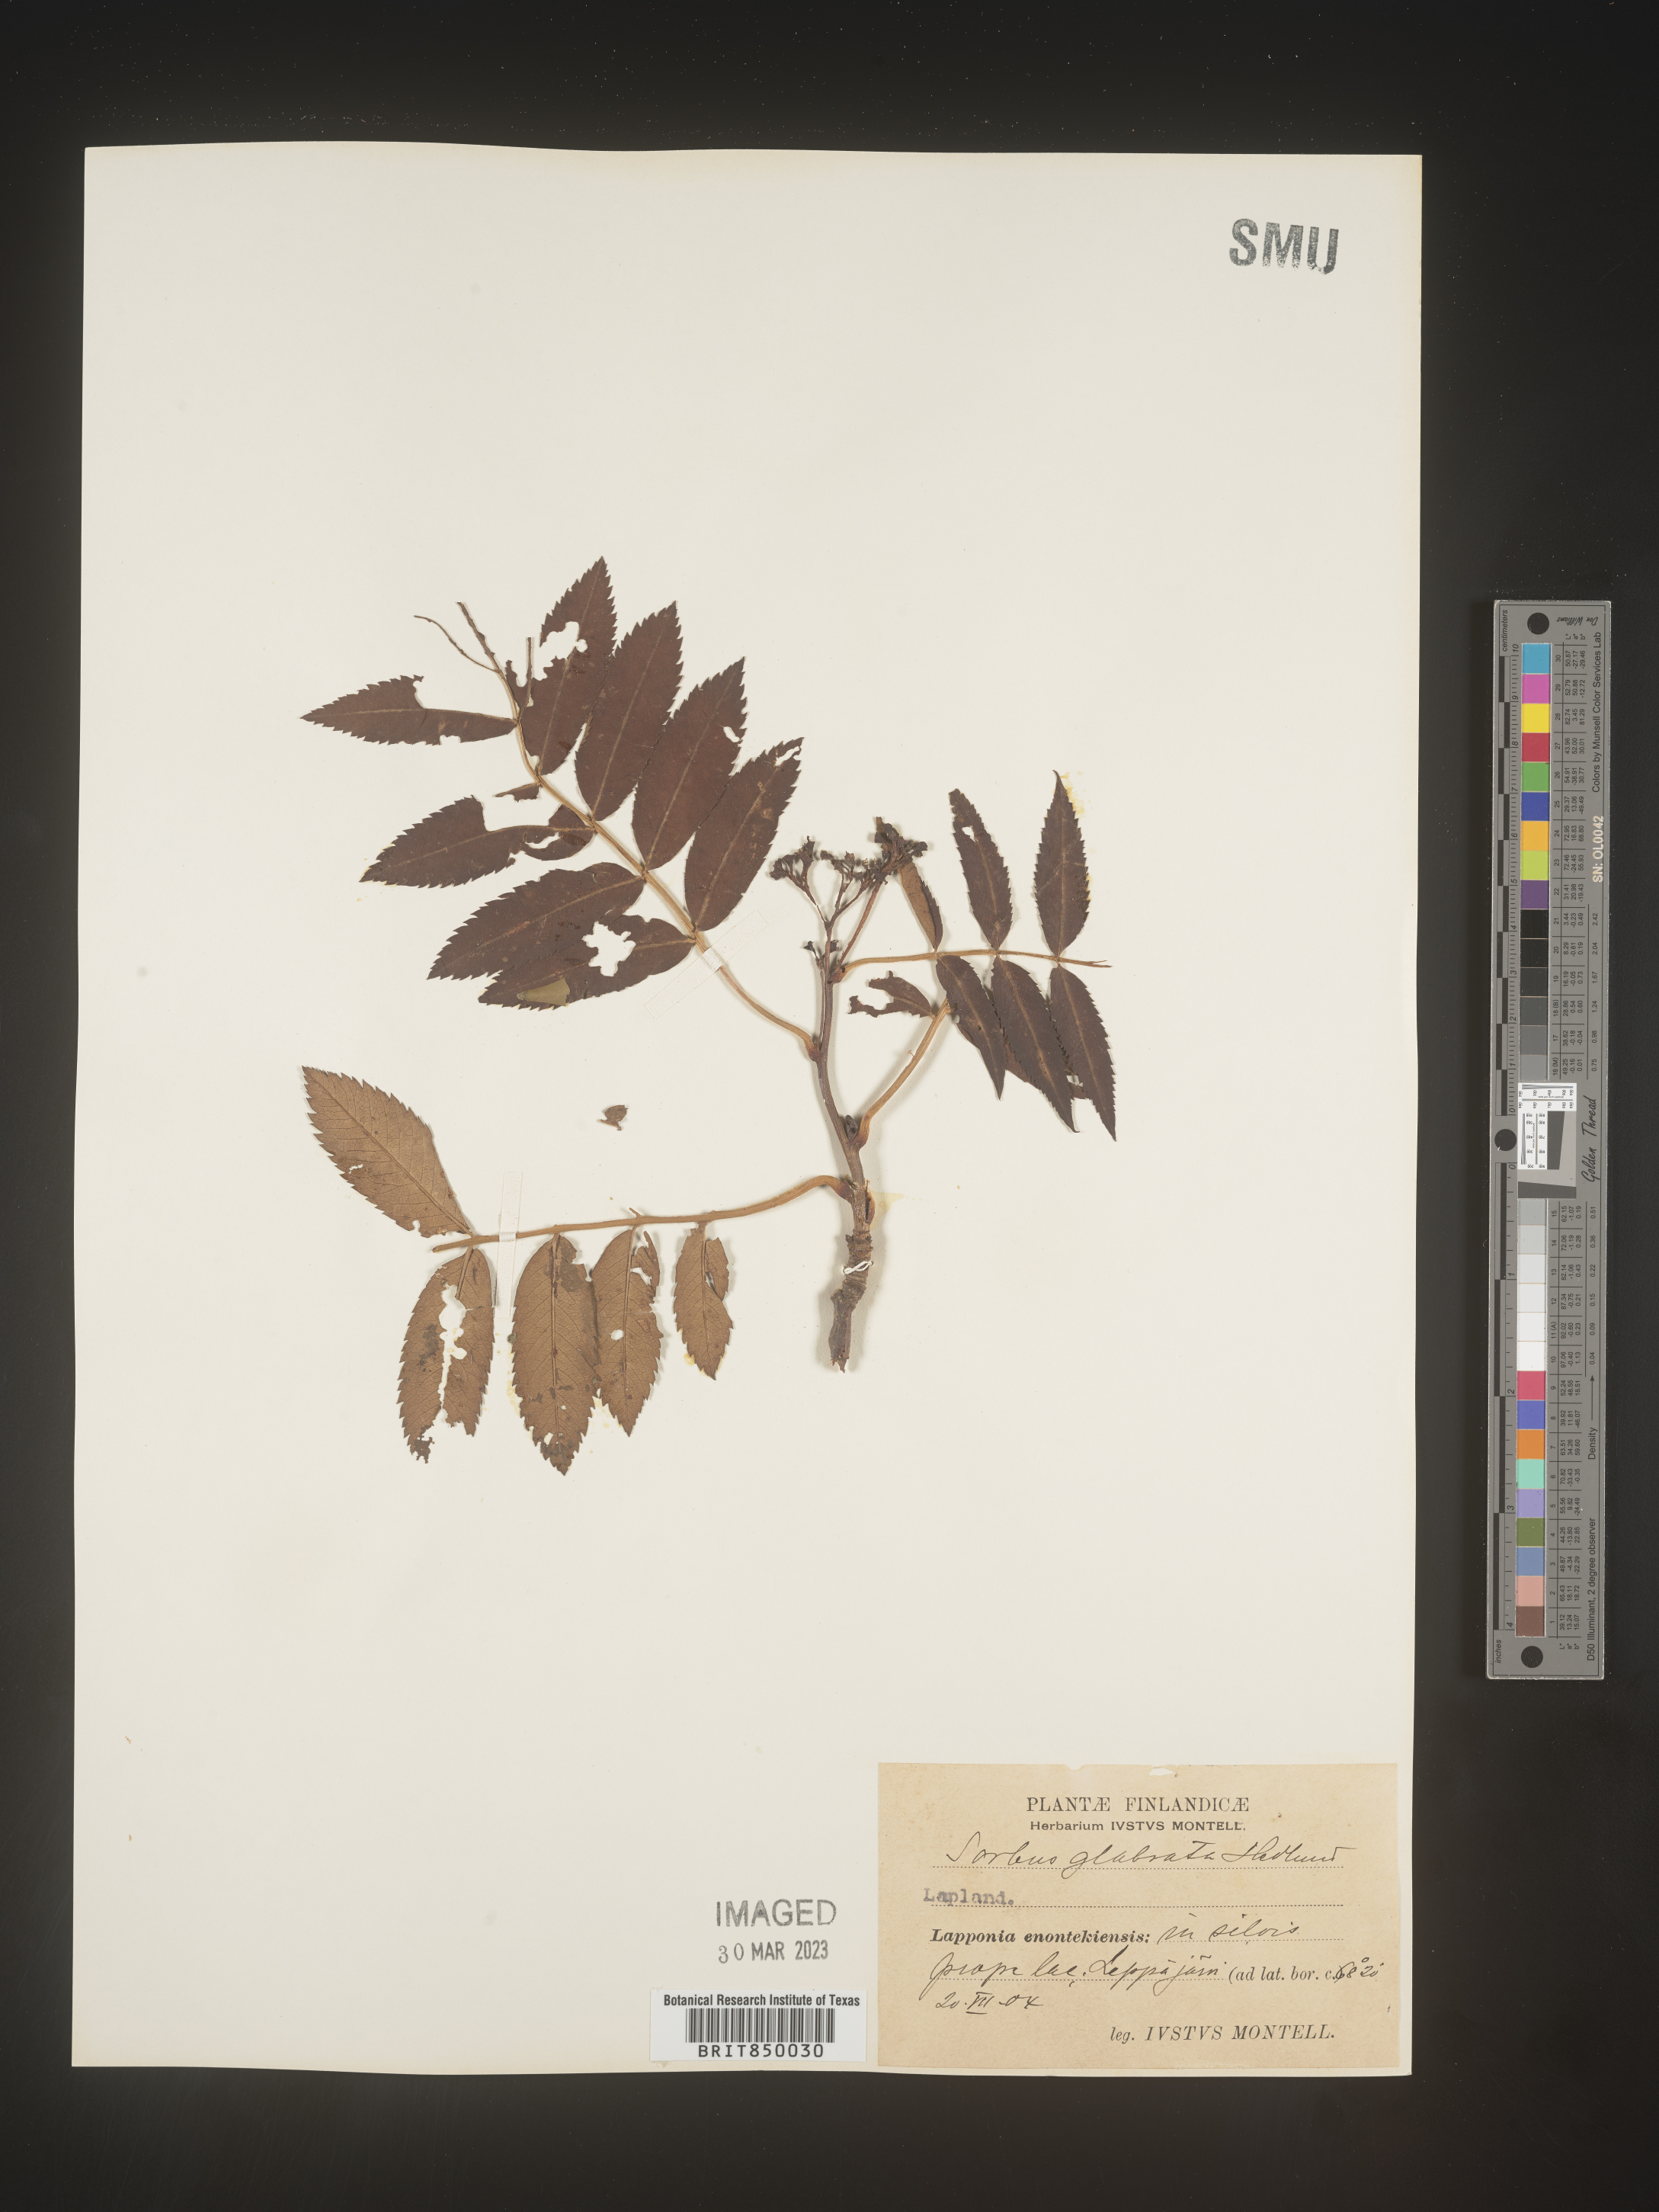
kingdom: Plantae
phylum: Tracheophyta
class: Magnoliopsida
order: Rosales
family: Rosaceae
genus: Sorbus
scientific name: Sorbus
